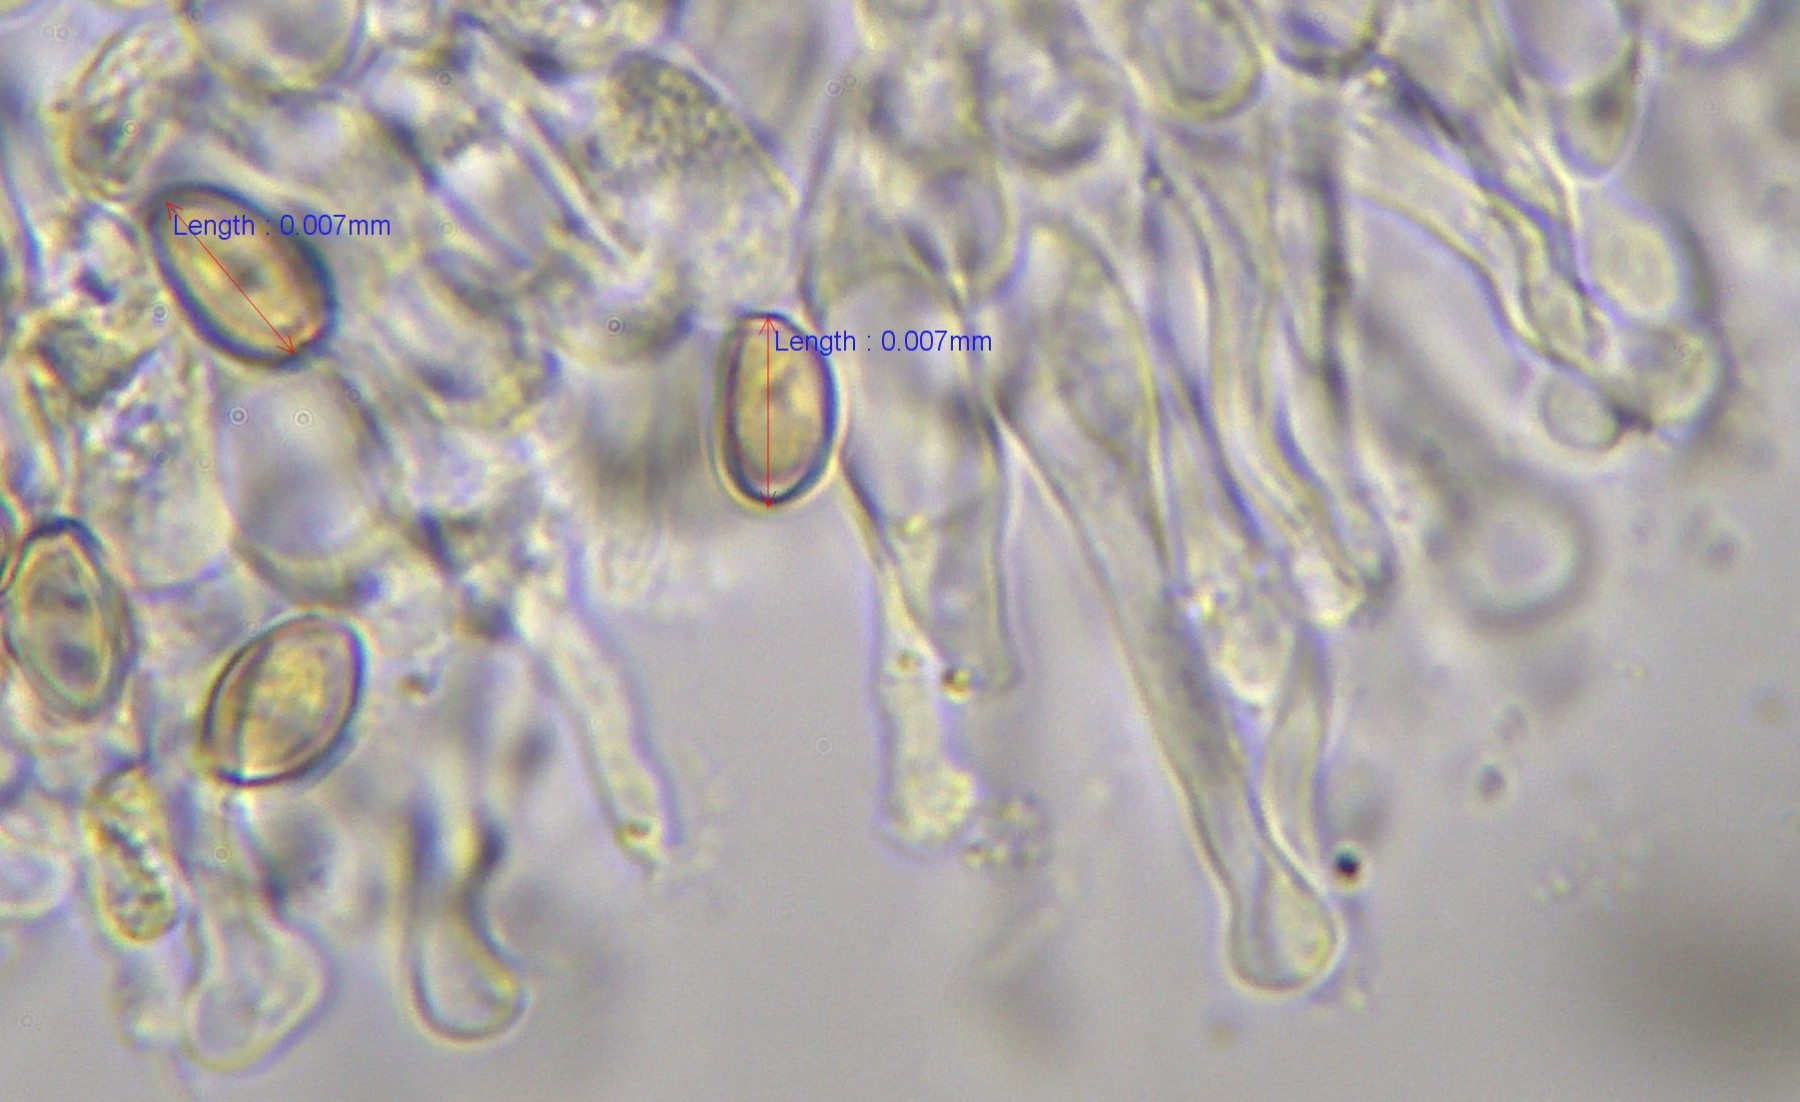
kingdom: Fungi
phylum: Basidiomycota
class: Agaricomycetes
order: Agaricales
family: Hymenogastraceae
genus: Galerina
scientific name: Galerina sideroides
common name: træflis-hjelmhat
